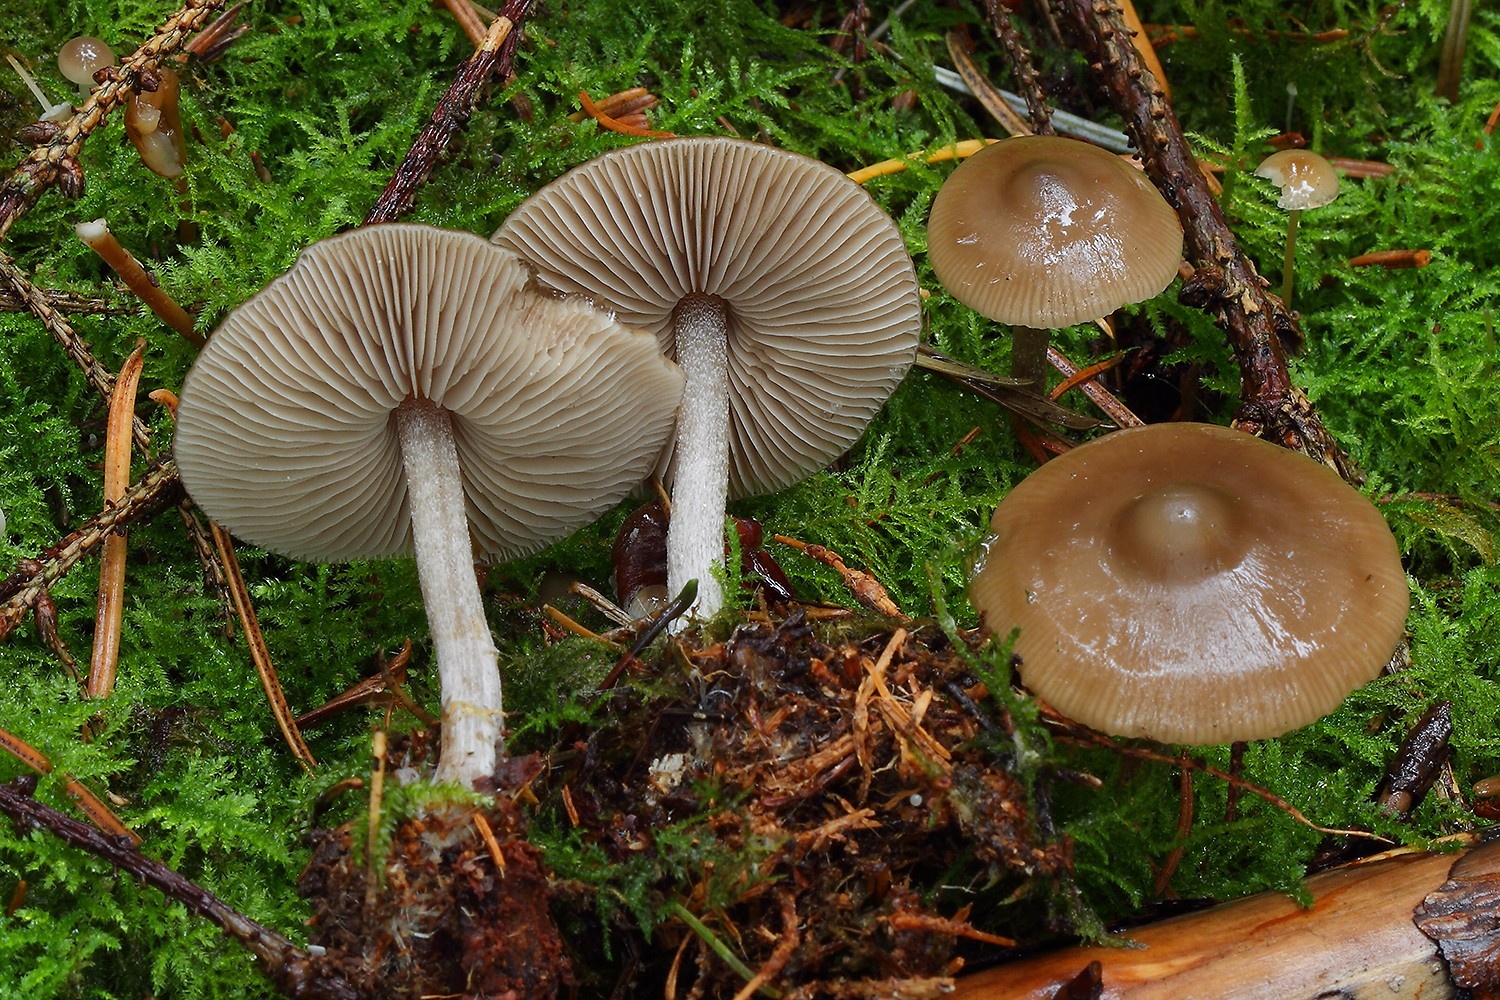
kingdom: Fungi
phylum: Basidiomycota
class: Agaricomycetes
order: Agaricales
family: Lyophyllaceae
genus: Myochromella
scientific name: Myochromella boudieri
